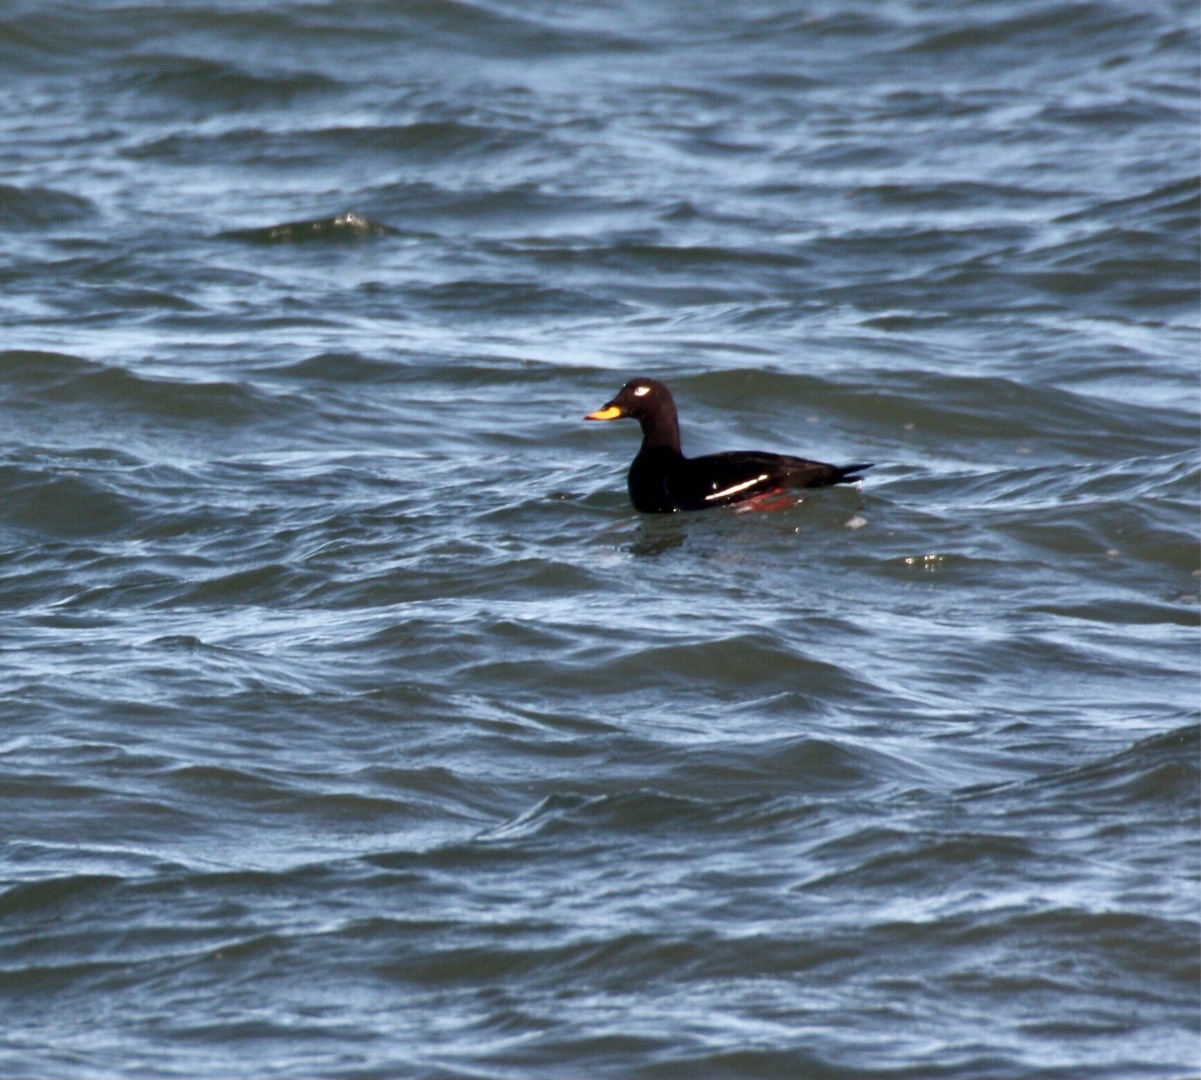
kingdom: Animalia
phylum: Chordata
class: Aves
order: Anseriformes
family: Anatidae
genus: Melanitta
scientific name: Melanitta fusca
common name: Fløjlsand
